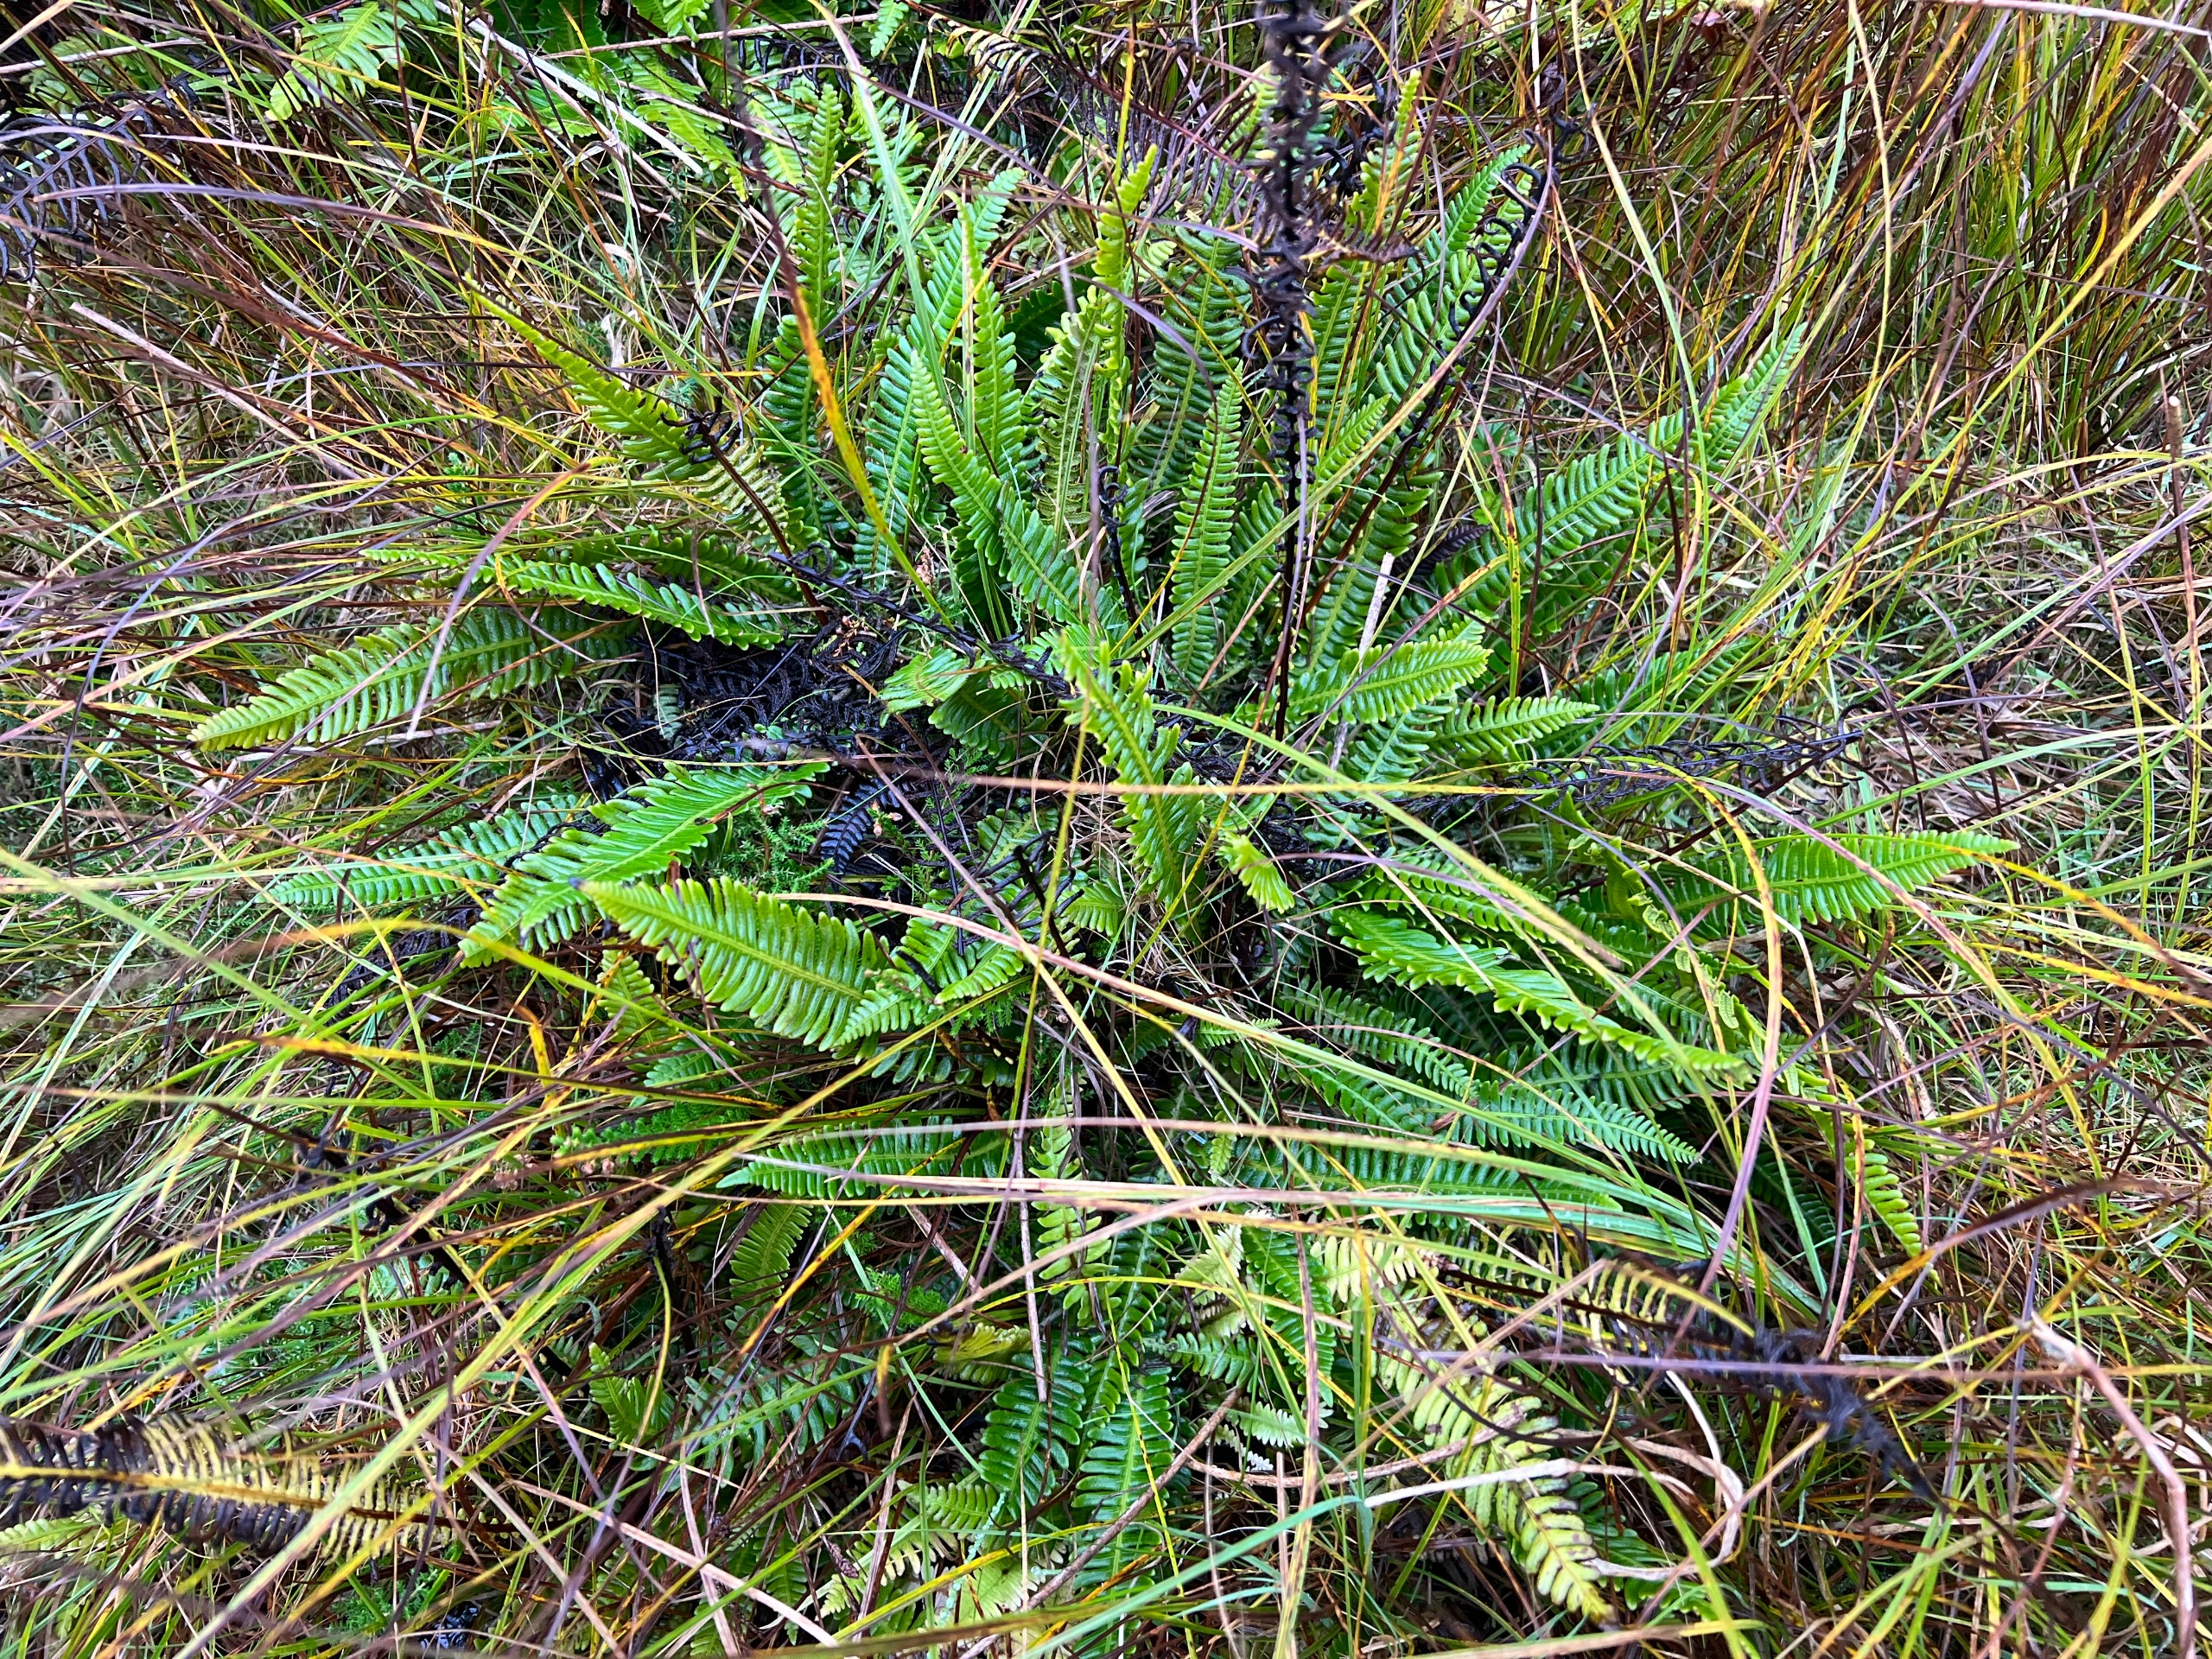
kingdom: Plantae
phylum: Tracheophyta
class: Polypodiopsida
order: Polypodiales
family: Blechnaceae
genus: Struthiopteris
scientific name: Struthiopteris spicant
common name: Kambregne
